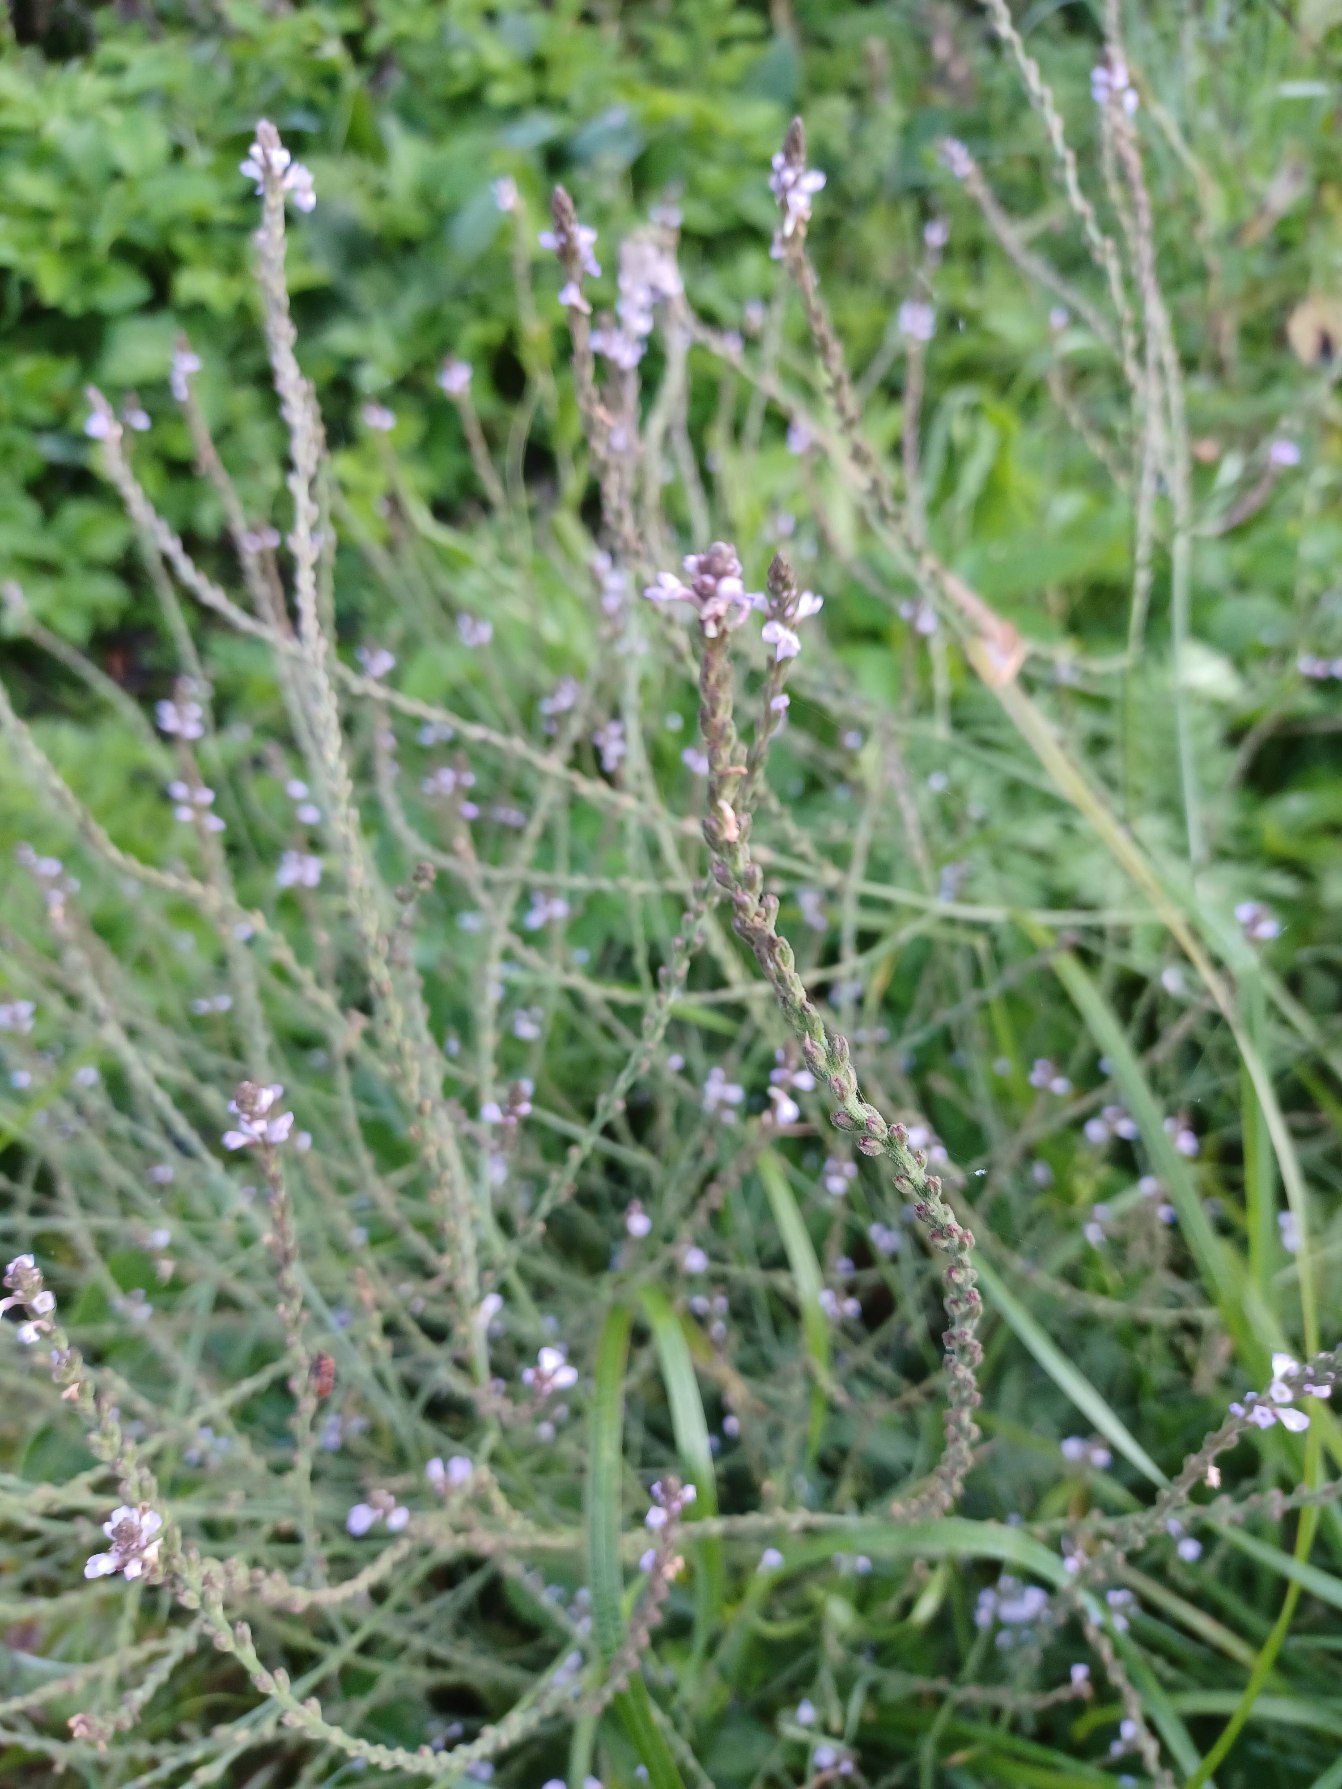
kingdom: Plantae
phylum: Tracheophyta
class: Magnoliopsida
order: Lamiales
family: Verbenaceae
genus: Verbena
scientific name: Verbena officinalis
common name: Læge-jernurt
